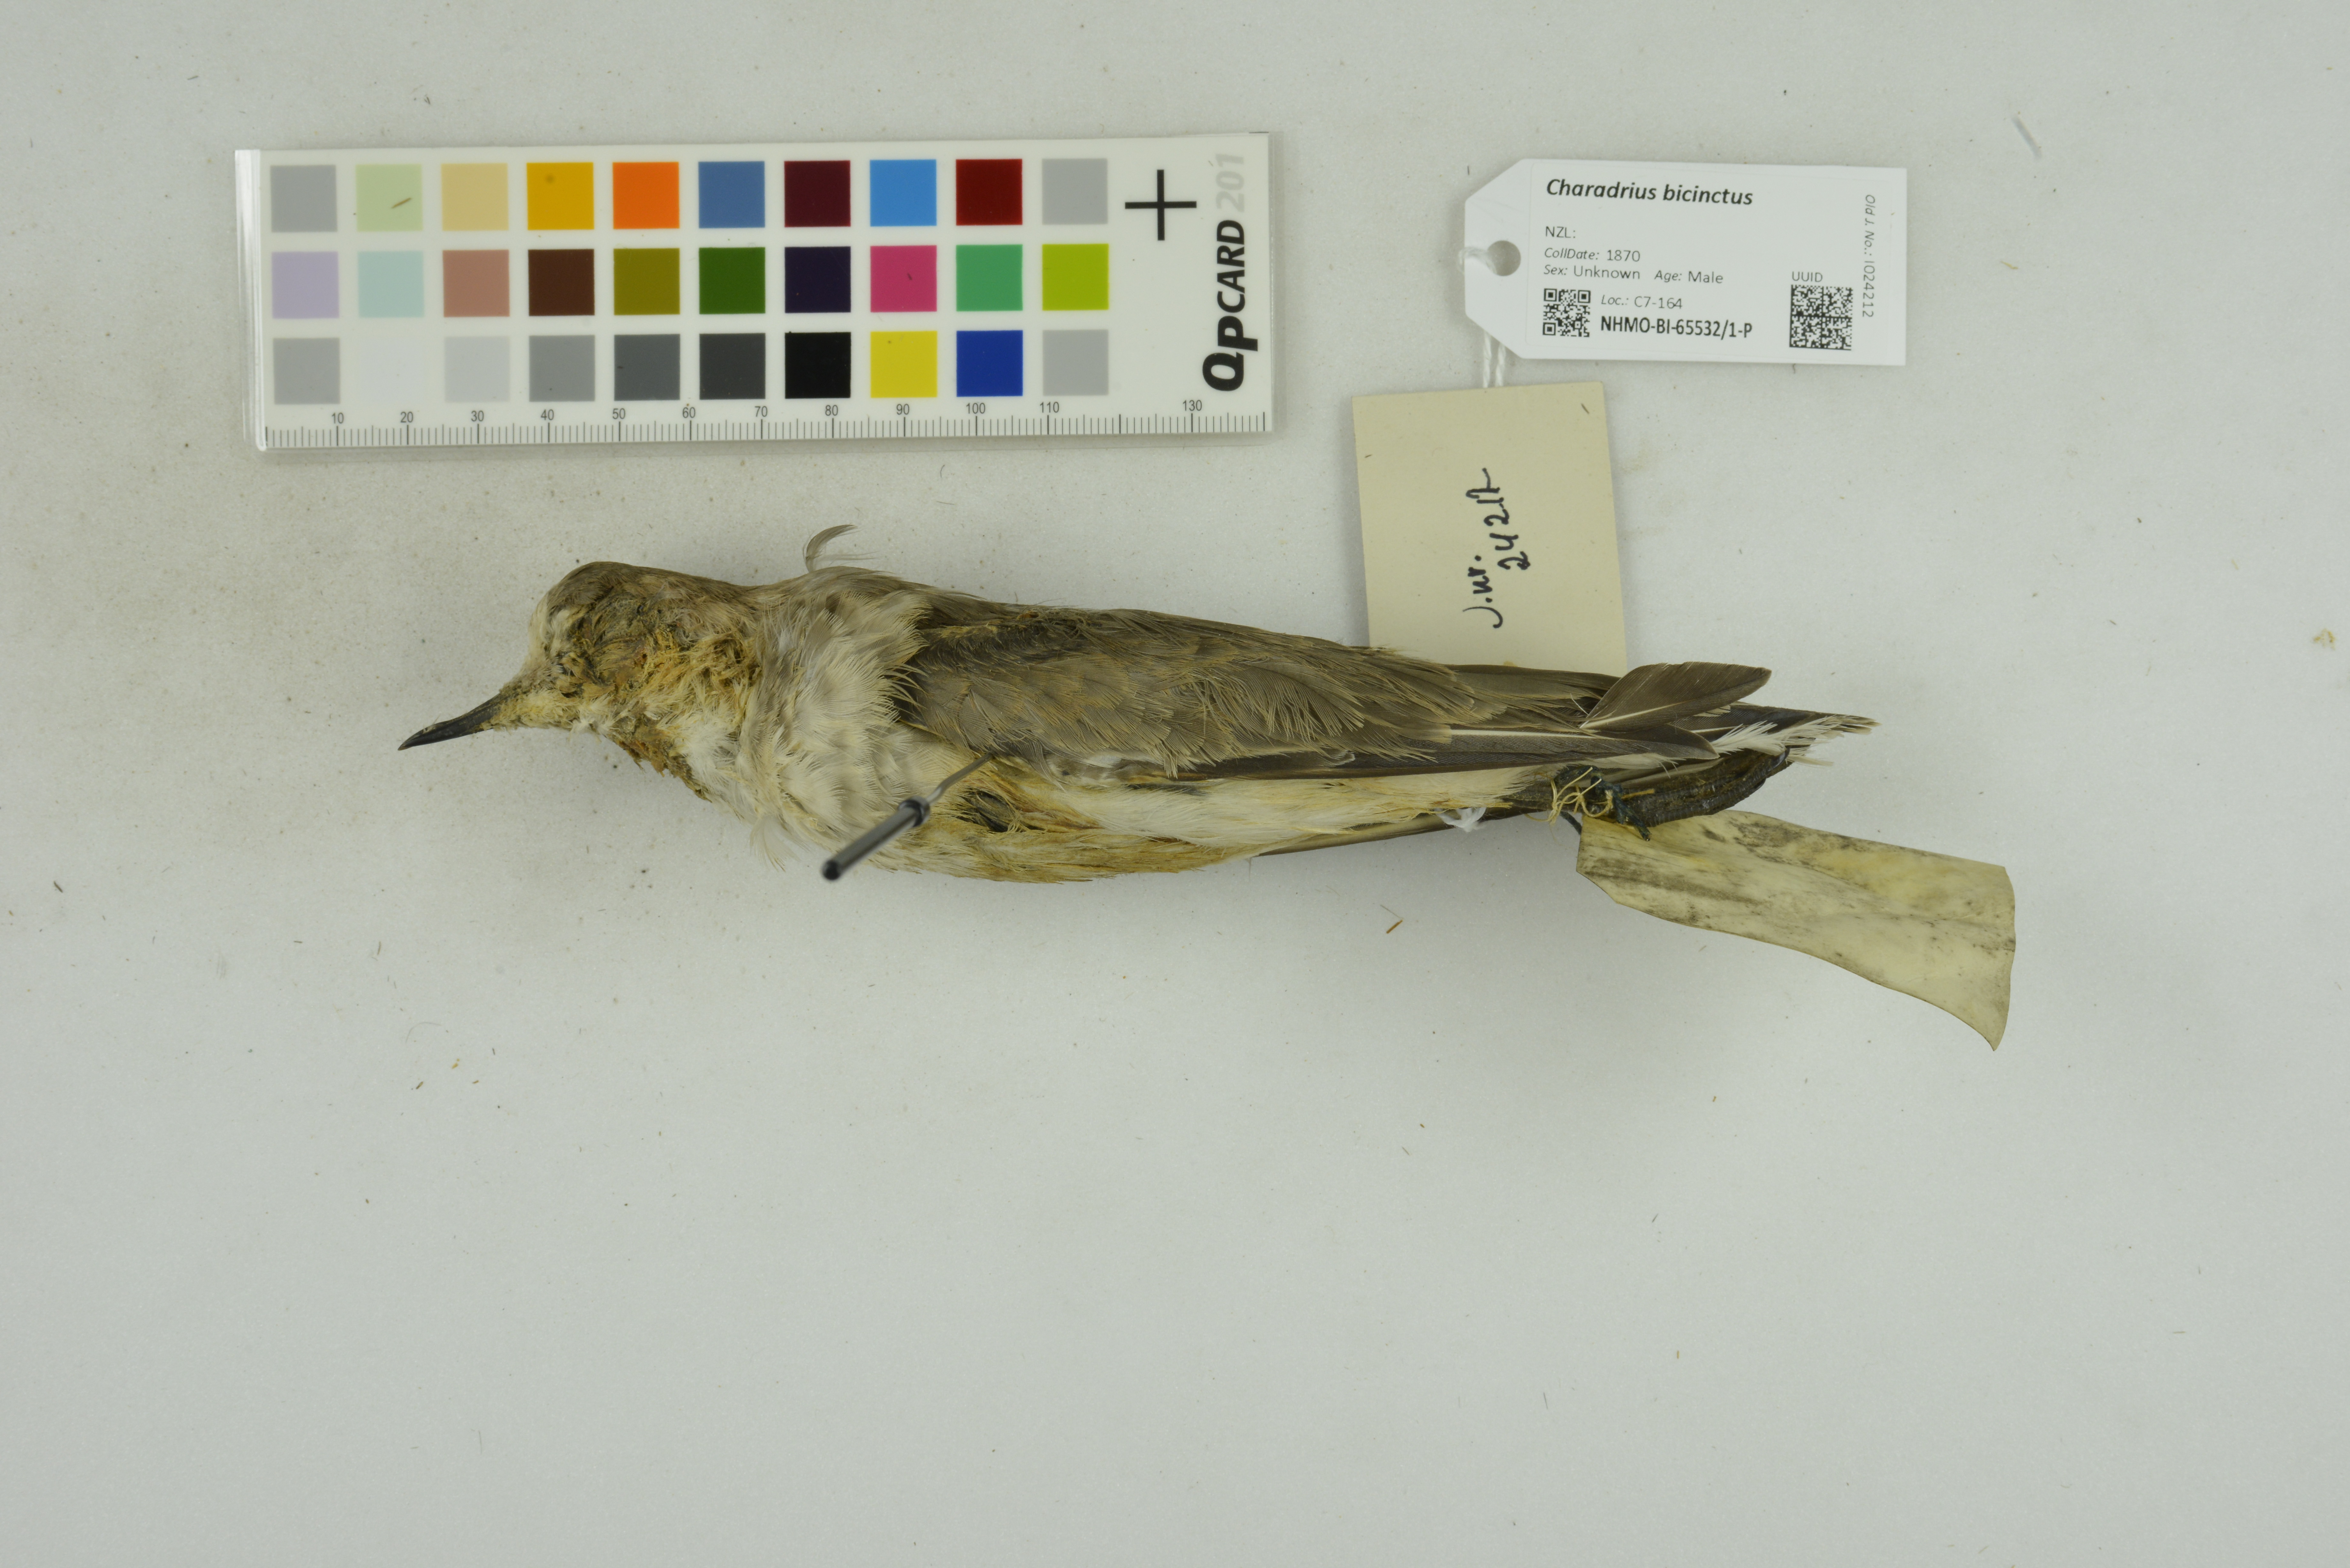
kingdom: Animalia
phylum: Chordata
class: Aves
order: Charadriiformes
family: Charadriidae
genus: Charadrius
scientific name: Charadrius bicinctus
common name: Double-banded plover
